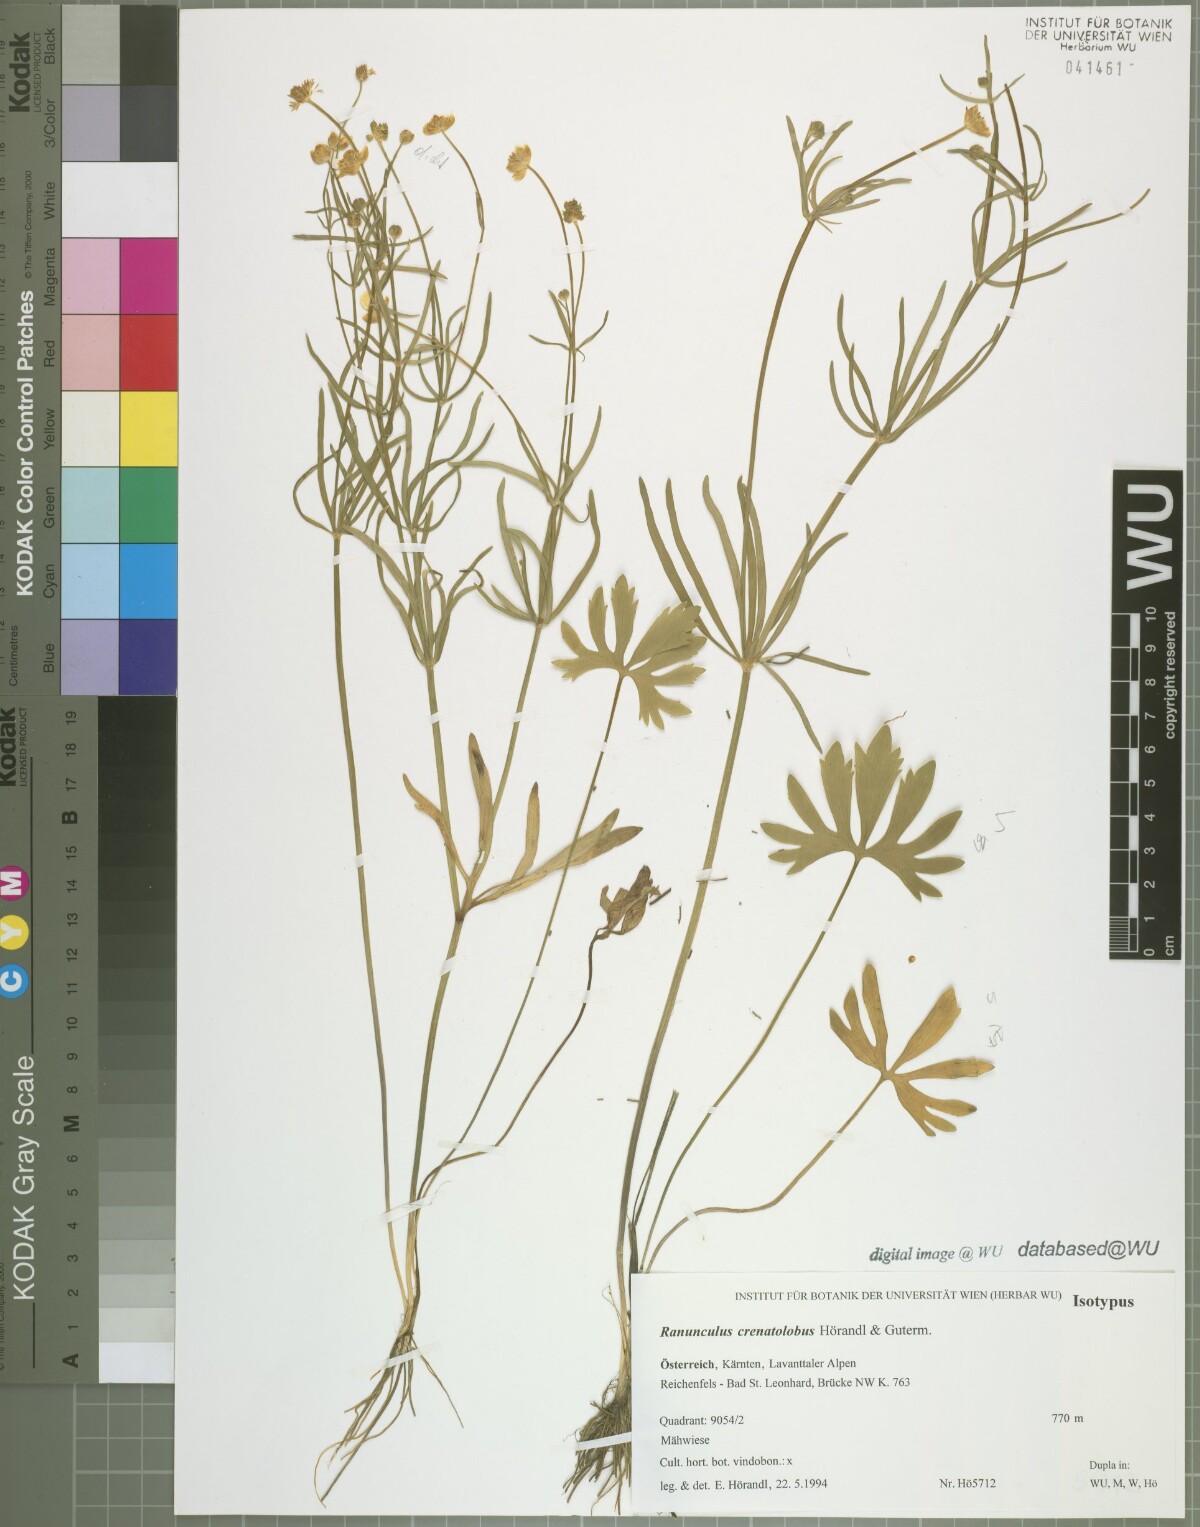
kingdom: Plantae
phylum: Tracheophyta
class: Magnoliopsida
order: Ranunculales
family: Ranunculaceae
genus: Ranunculus
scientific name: Ranunculus crenatolobus
